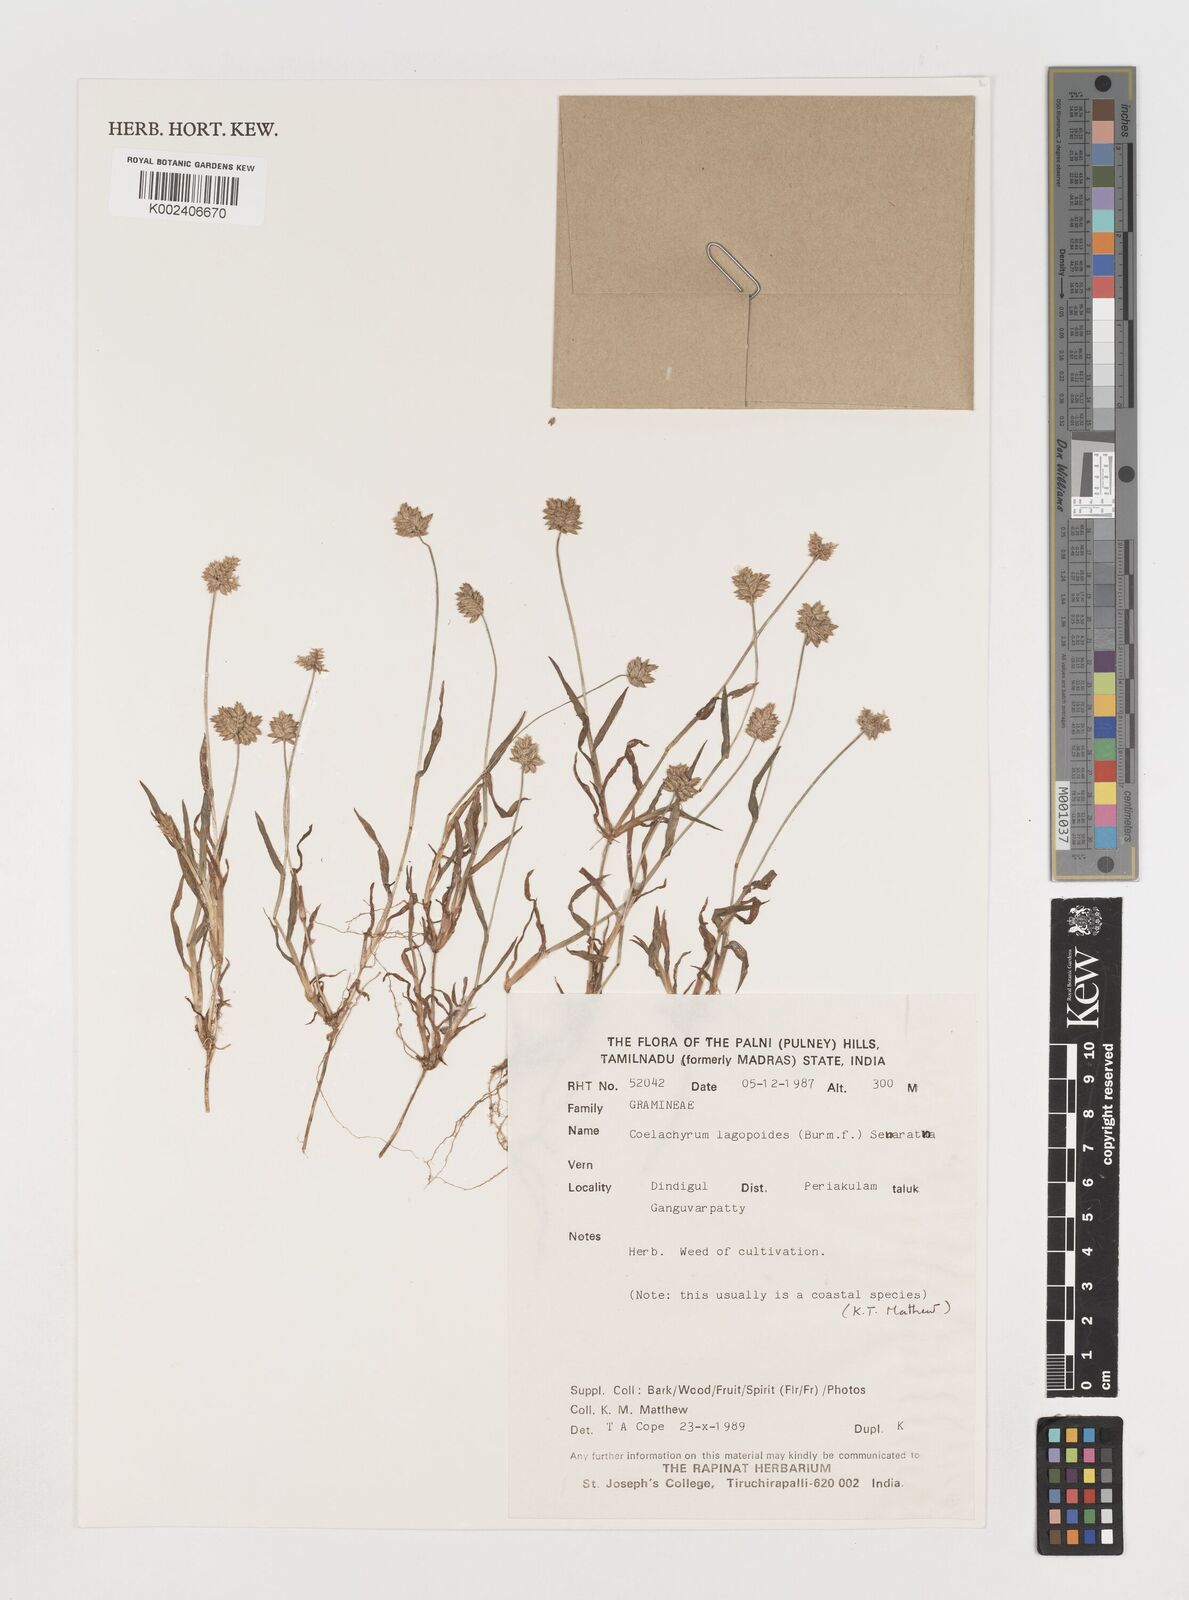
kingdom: Plantae
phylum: Tracheophyta
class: Liliopsida
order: Poales
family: Poaceae
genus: Coelachyrum
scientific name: Coelachyrum lagopoides
